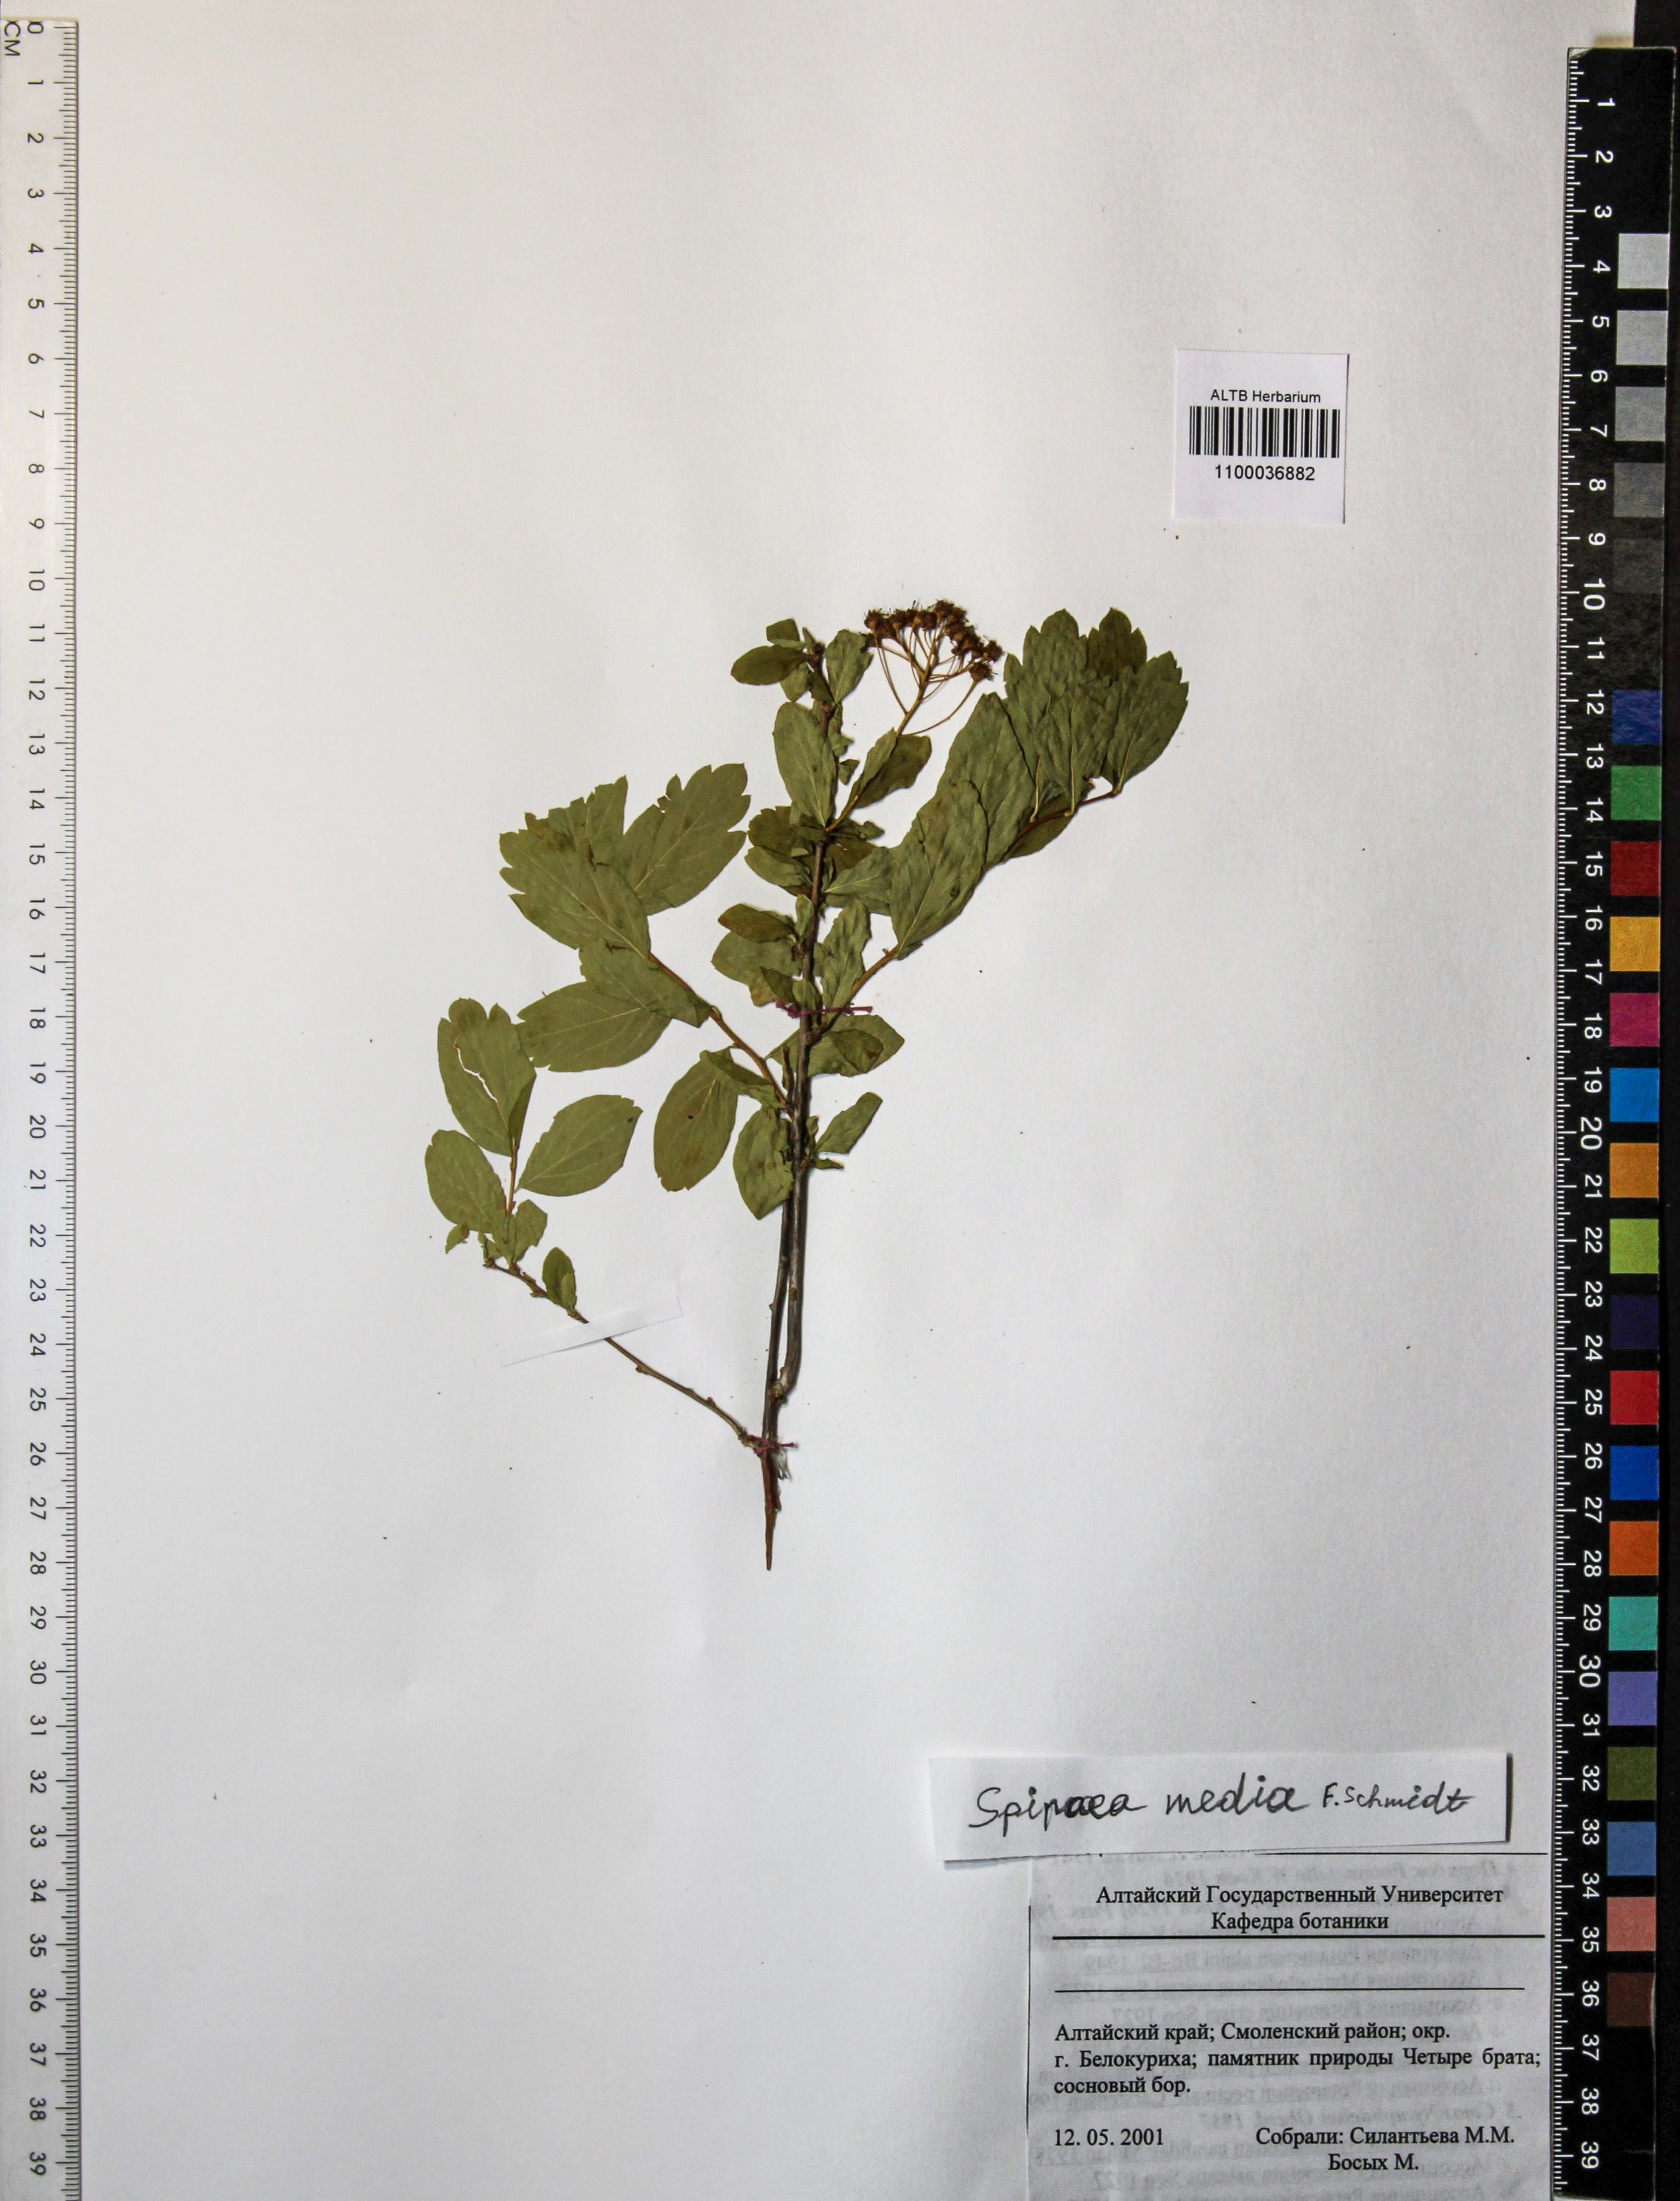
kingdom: Plantae
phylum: Tracheophyta
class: Magnoliopsida
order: Rosales
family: Rosaceae
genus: Spiraea
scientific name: Spiraea media
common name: Russian spiraea
